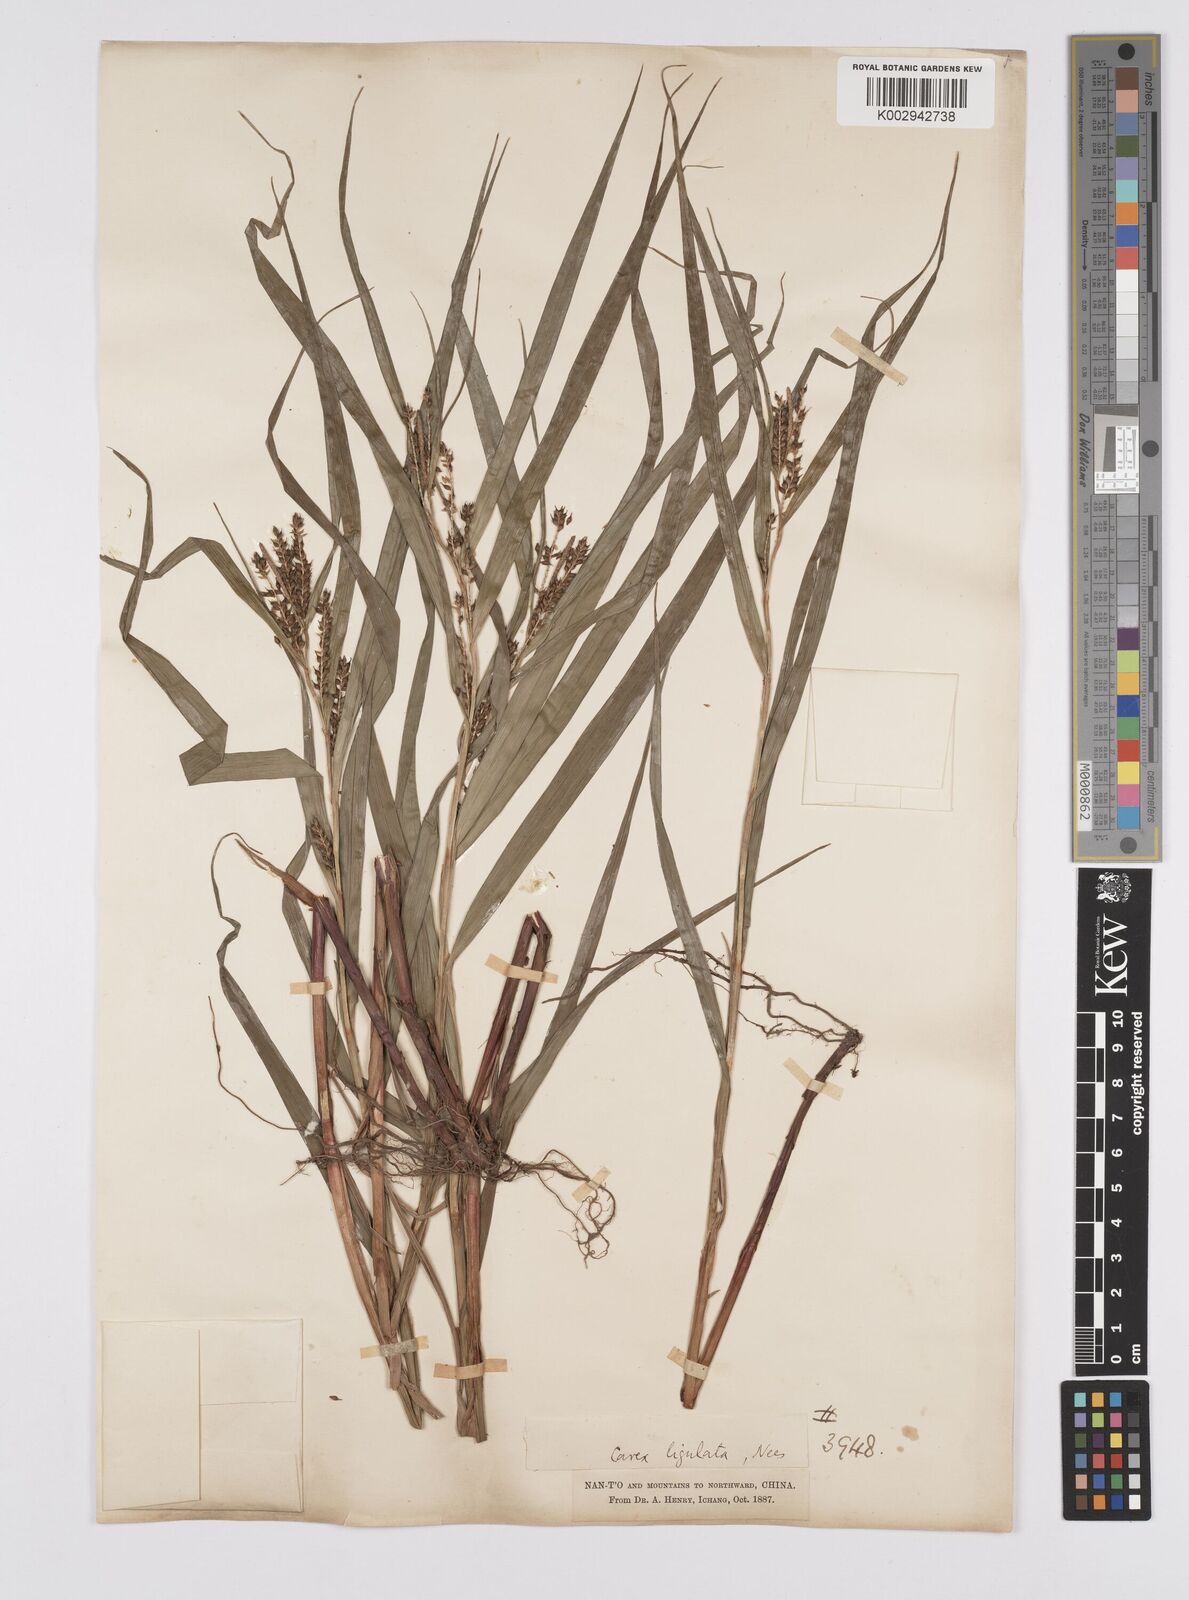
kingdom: Plantae
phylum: Tracheophyta
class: Liliopsida
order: Poales
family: Cyperaceae
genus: Carex
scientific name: Carex ligulata
